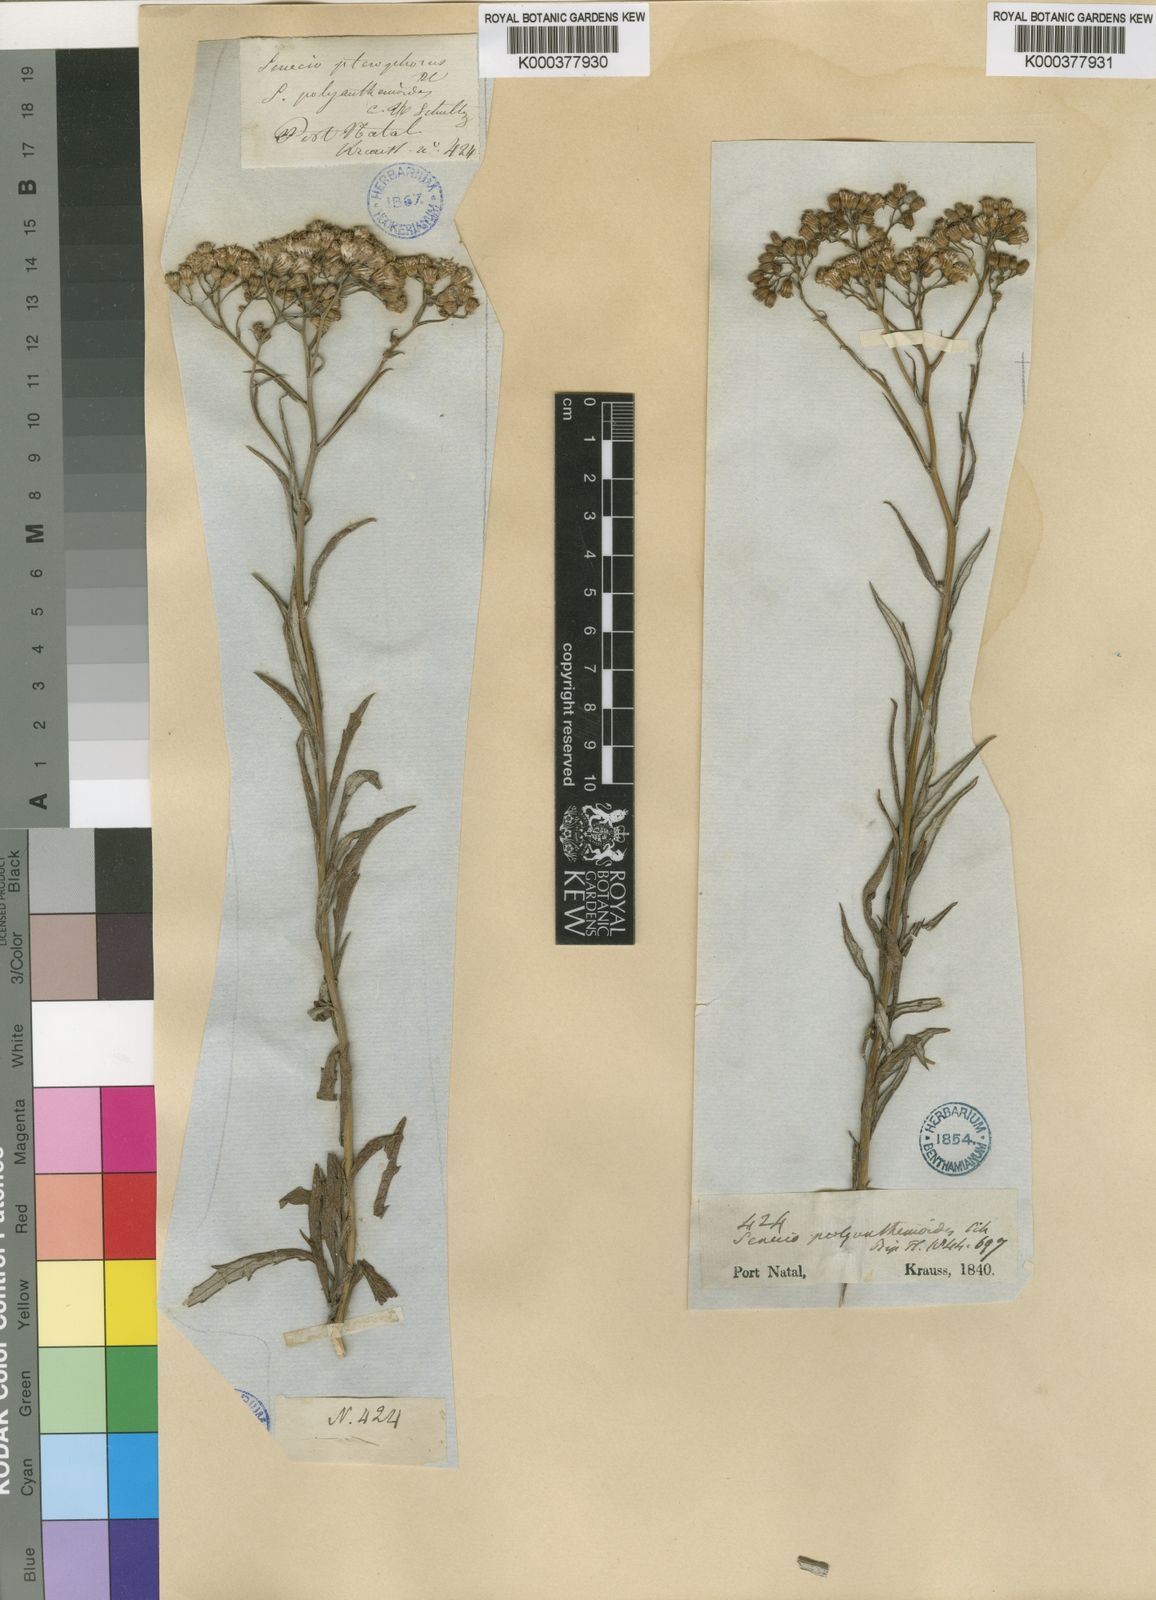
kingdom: Plantae
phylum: Tracheophyta
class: Magnoliopsida
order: Asterales
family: Asteraceae
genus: Senecio
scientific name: Senecio pterophorus
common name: Shoddy ragwort
